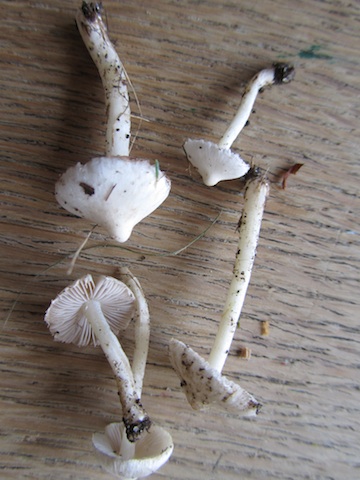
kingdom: Fungi
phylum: Basidiomycota
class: Agaricomycetes
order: Agaricales
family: Inocybaceae
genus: Inocybe
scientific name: Inocybe
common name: almindelig trævlhat
